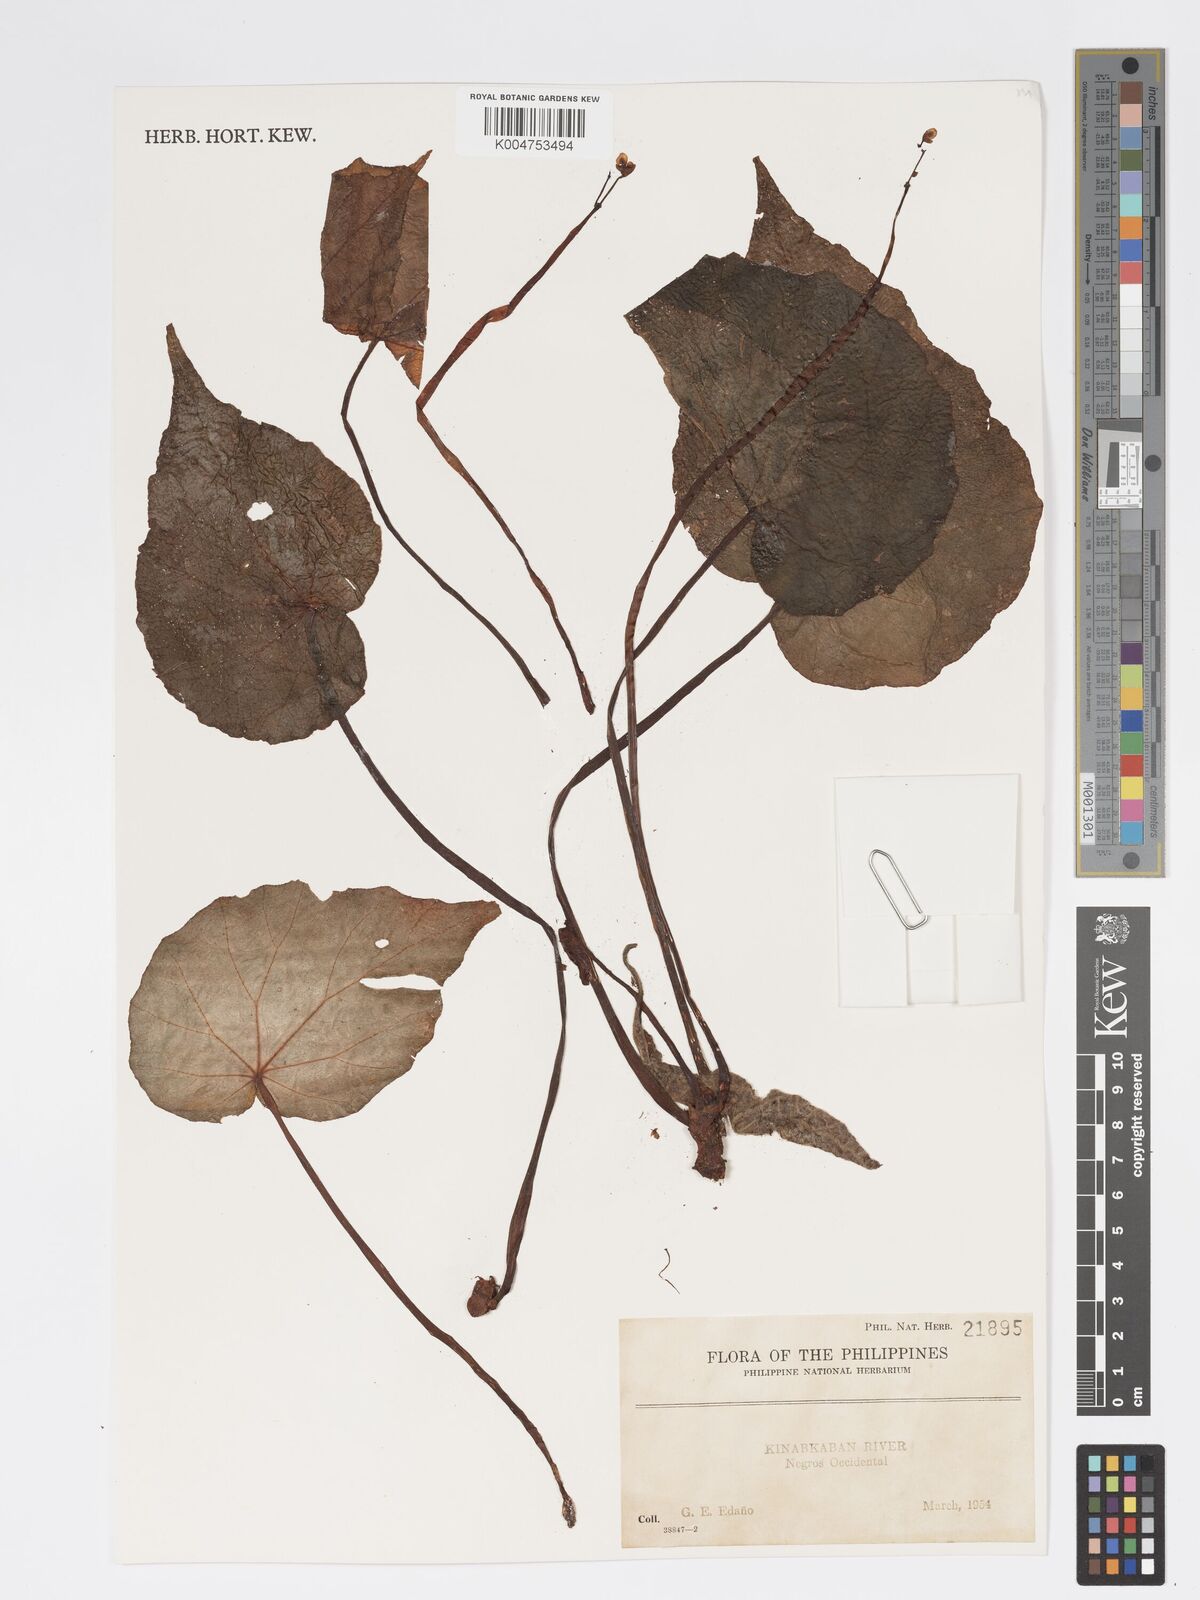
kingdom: Plantae
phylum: Tracheophyta
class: Magnoliopsida
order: Cucurbitales
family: Begoniaceae
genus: Begonia
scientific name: Begonia
